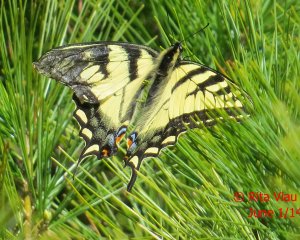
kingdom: Animalia
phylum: Arthropoda
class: Insecta
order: Lepidoptera
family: Papilionidae
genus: Pterourus
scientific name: Pterourus canadensis
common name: Canadian Tiger Swallowtail
